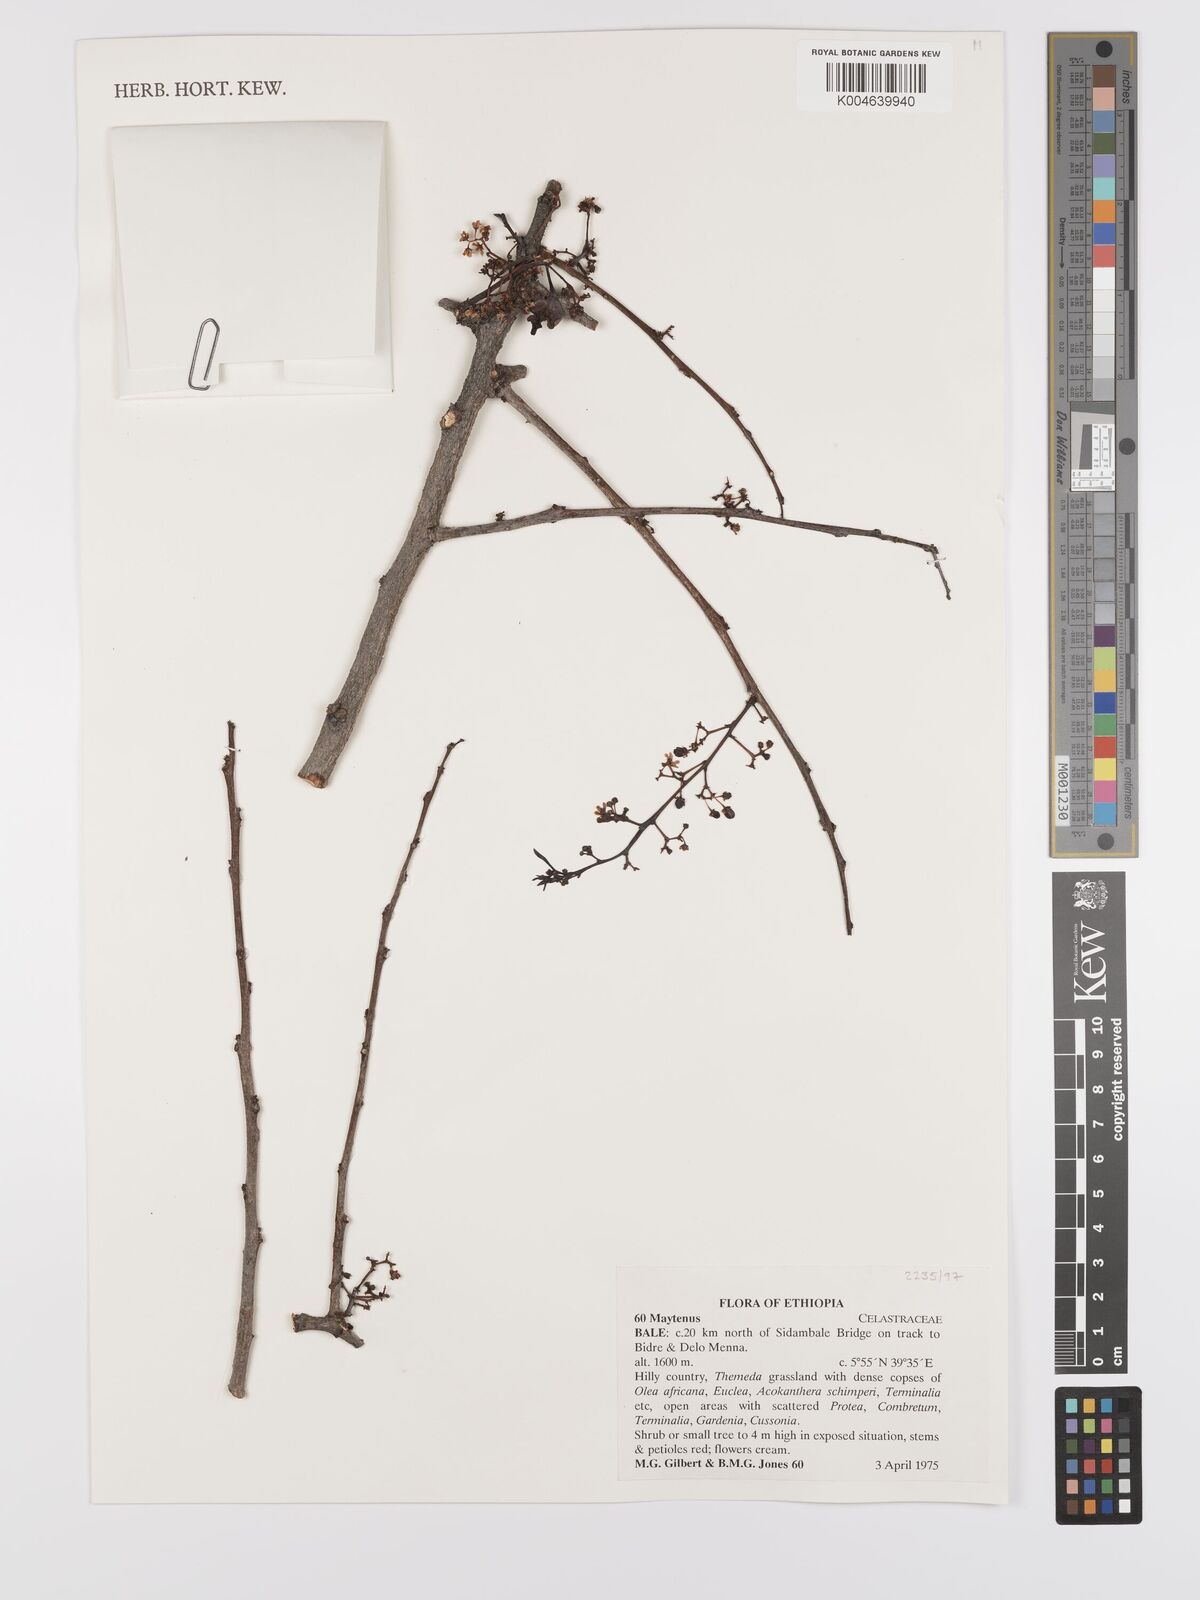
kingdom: Plantae
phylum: Tracheophyta
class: Magnoliopsida
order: Celastrales
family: Celastraceae
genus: Gymnosporia
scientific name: Gymnosporia
